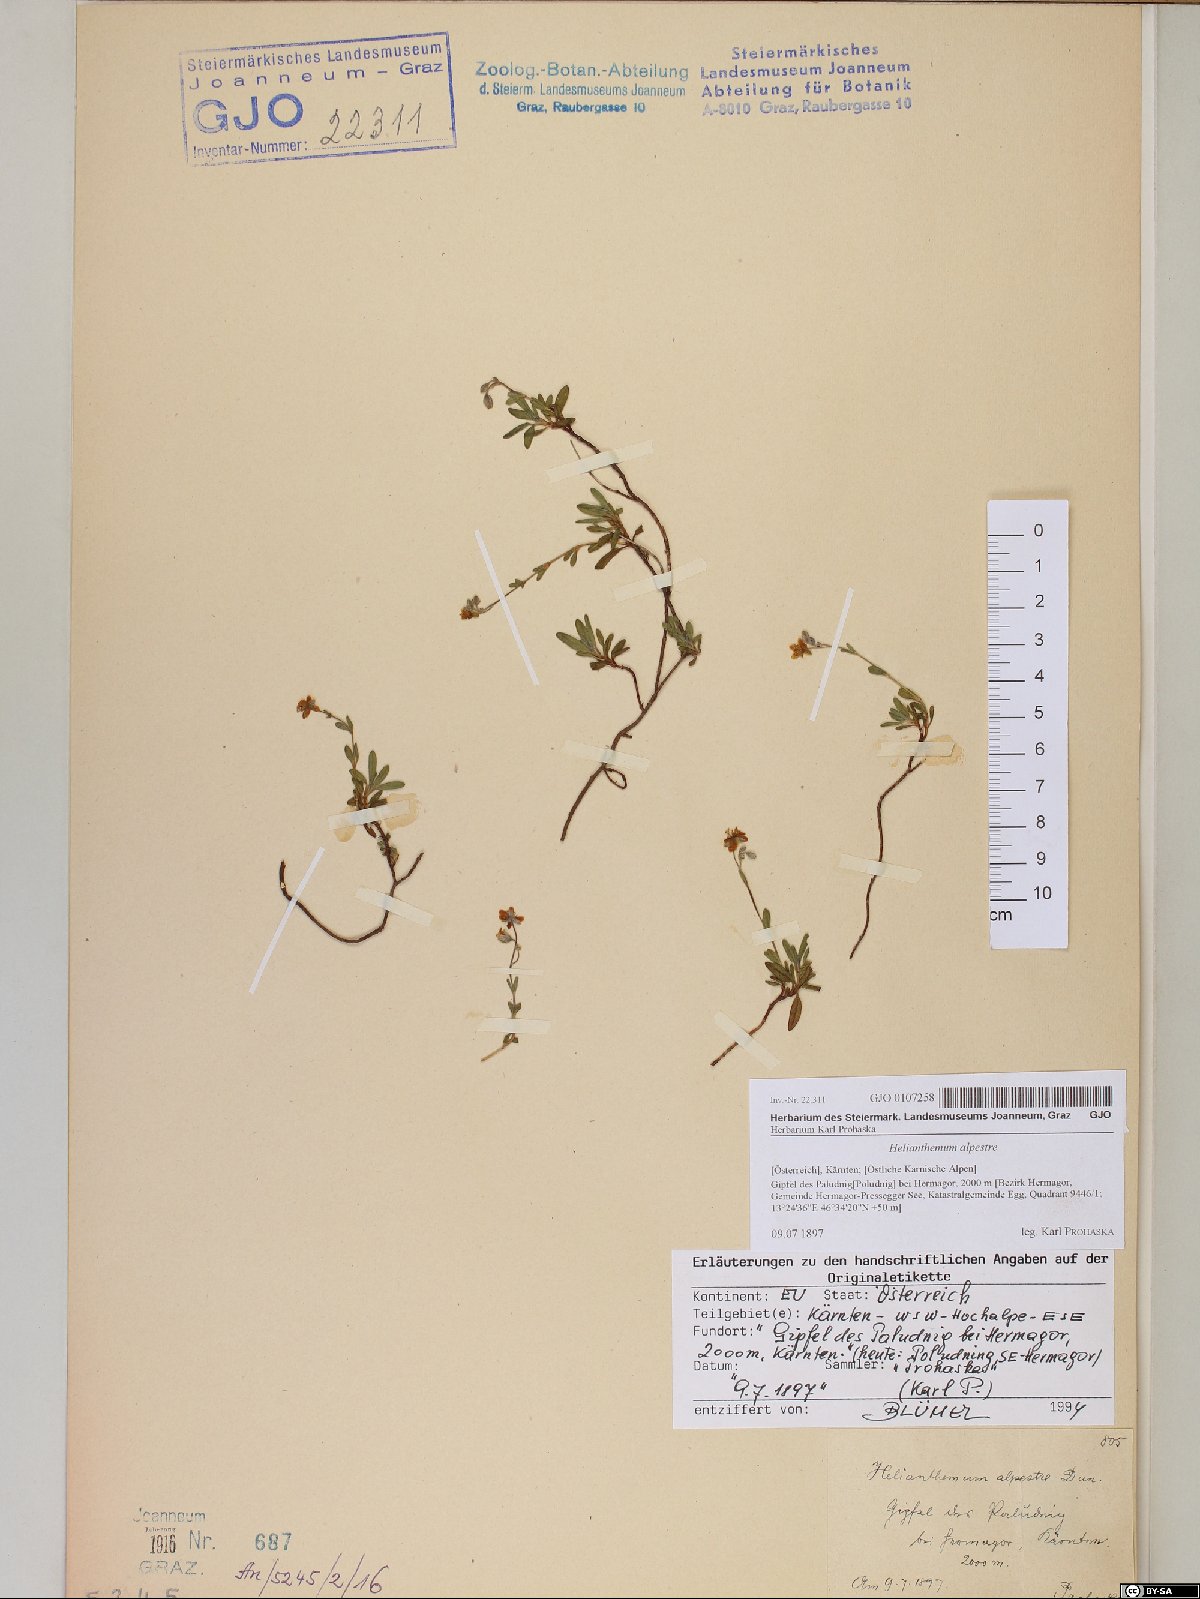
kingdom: Plantae
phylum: Tracheophyta
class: Magnoliopsida
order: Malvales
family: Cistaceae
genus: Helianthemum
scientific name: Helianthemum alpestre
